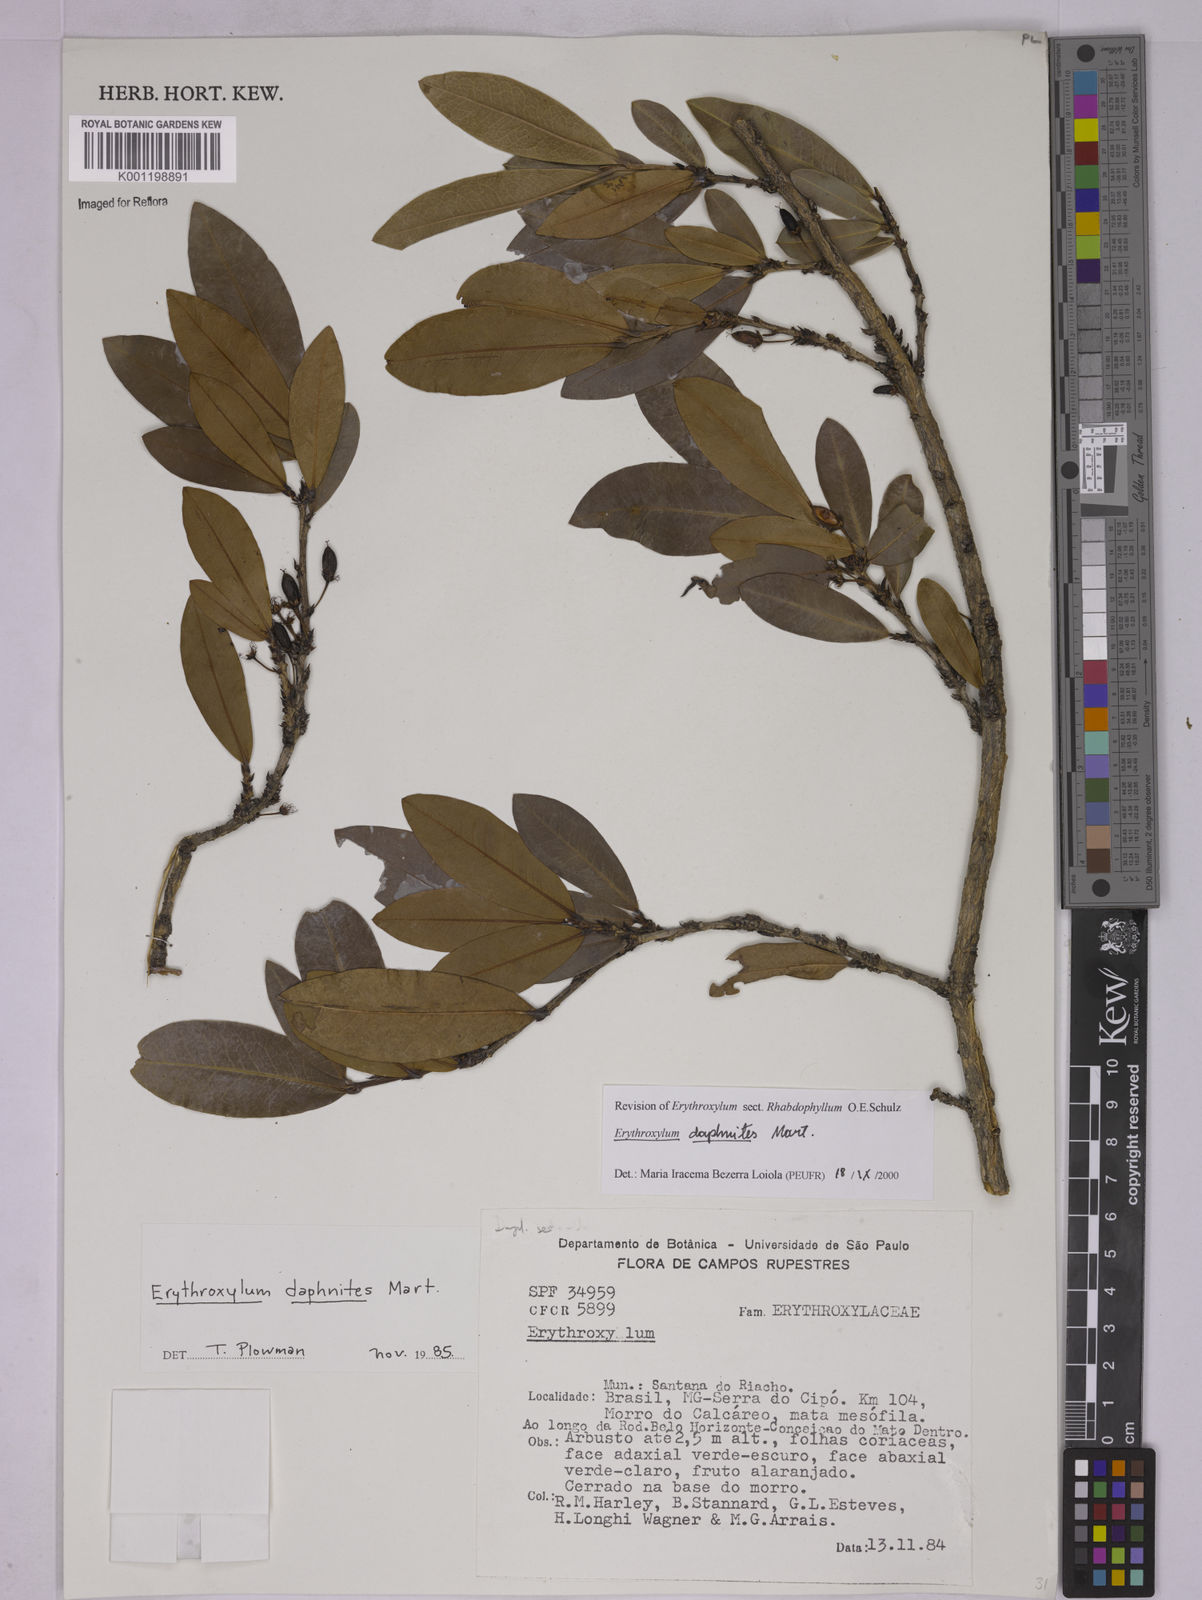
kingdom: Plantae
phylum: Tracheophyta
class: Magnoliopsida
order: Malpighiales
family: Erythroxylaceae
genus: Erythroxylum
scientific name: Erythroxylum daphnites
